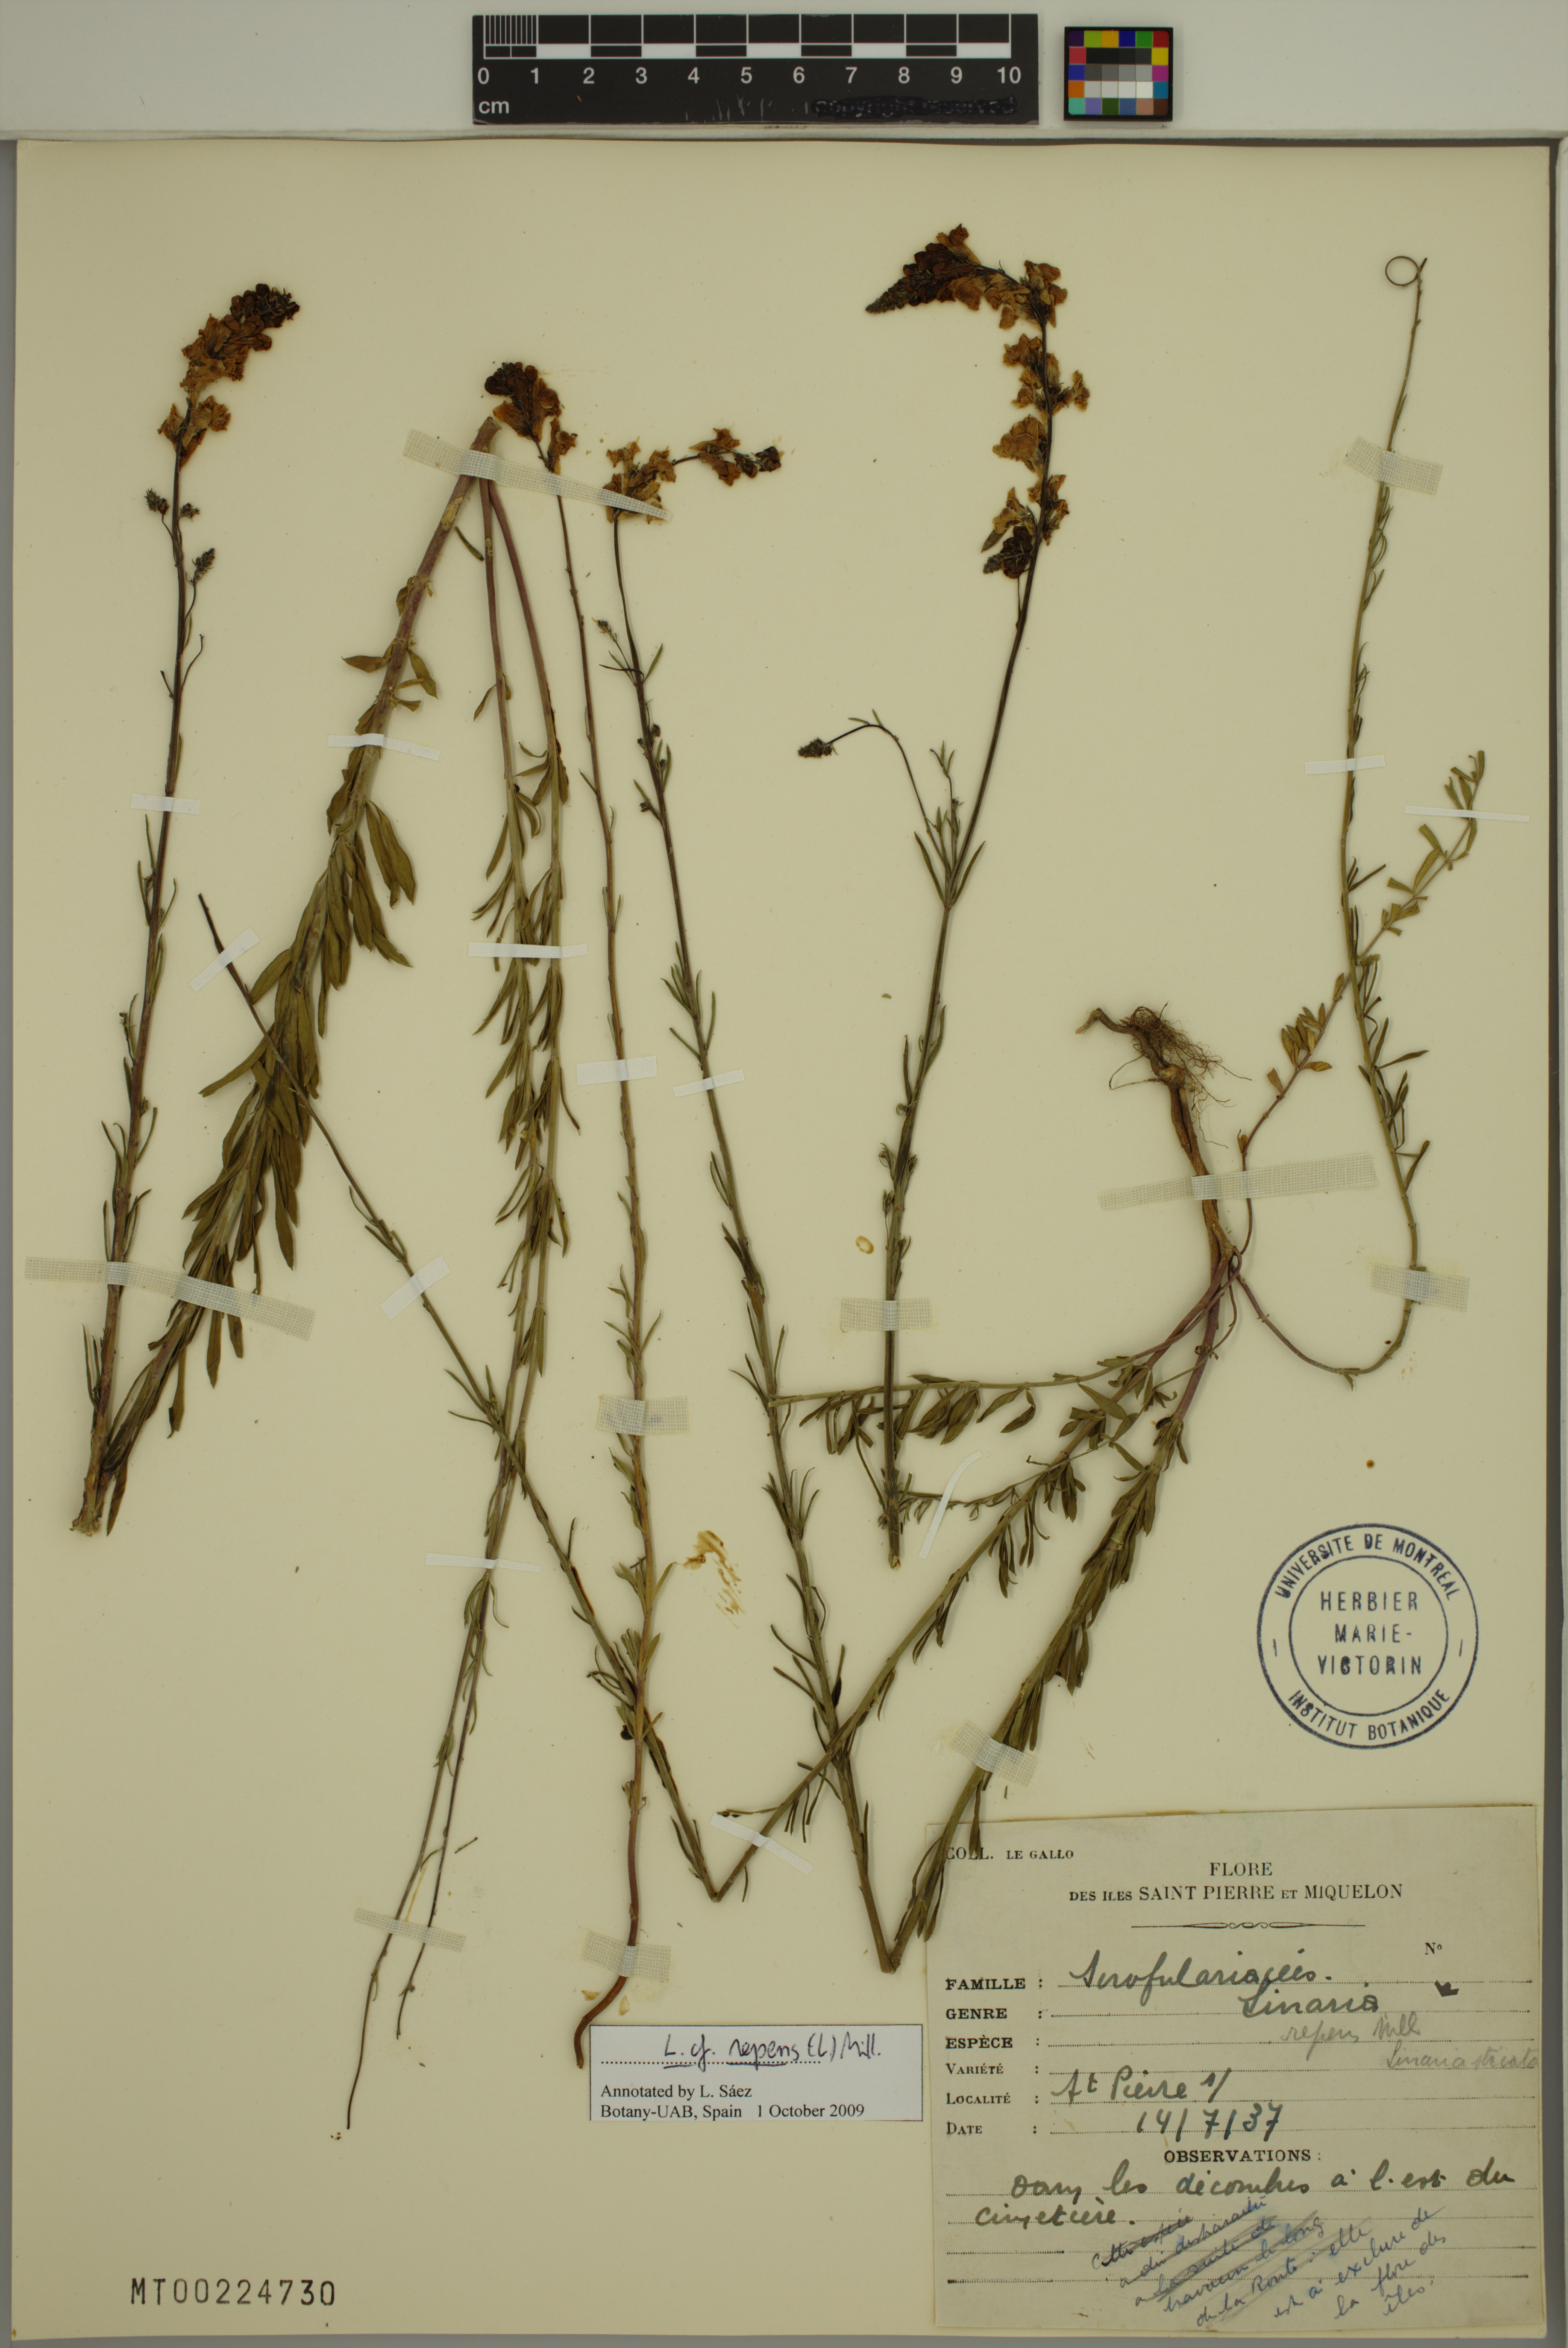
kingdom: Plantae
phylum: Tracheophyta
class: Magnoliopsida
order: Lamiales
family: Plantaginaceae
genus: Linaria
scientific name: Linaria repens
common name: Pale toadflax
